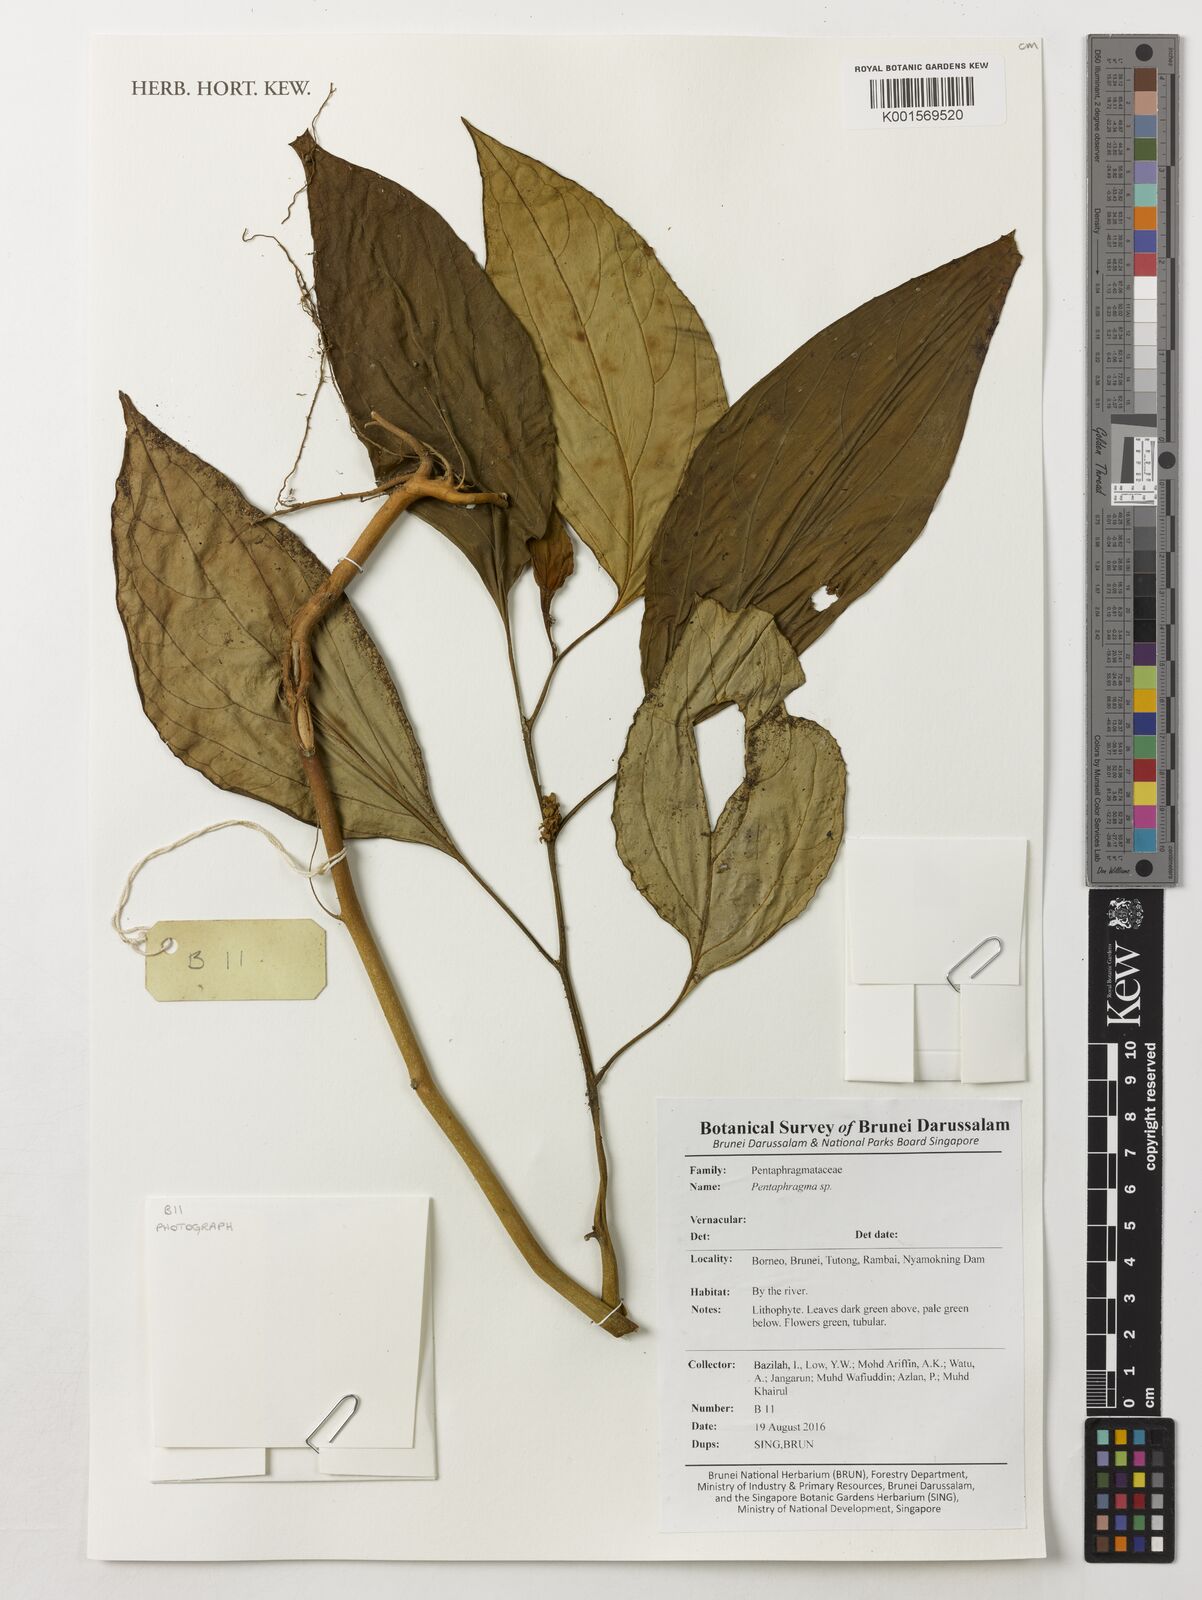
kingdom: Plantae
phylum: Tracheophyta
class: Magnoliopsida
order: Asterales
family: Pentaphragmataceae
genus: Pentaphragma
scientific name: Pentaphragma
